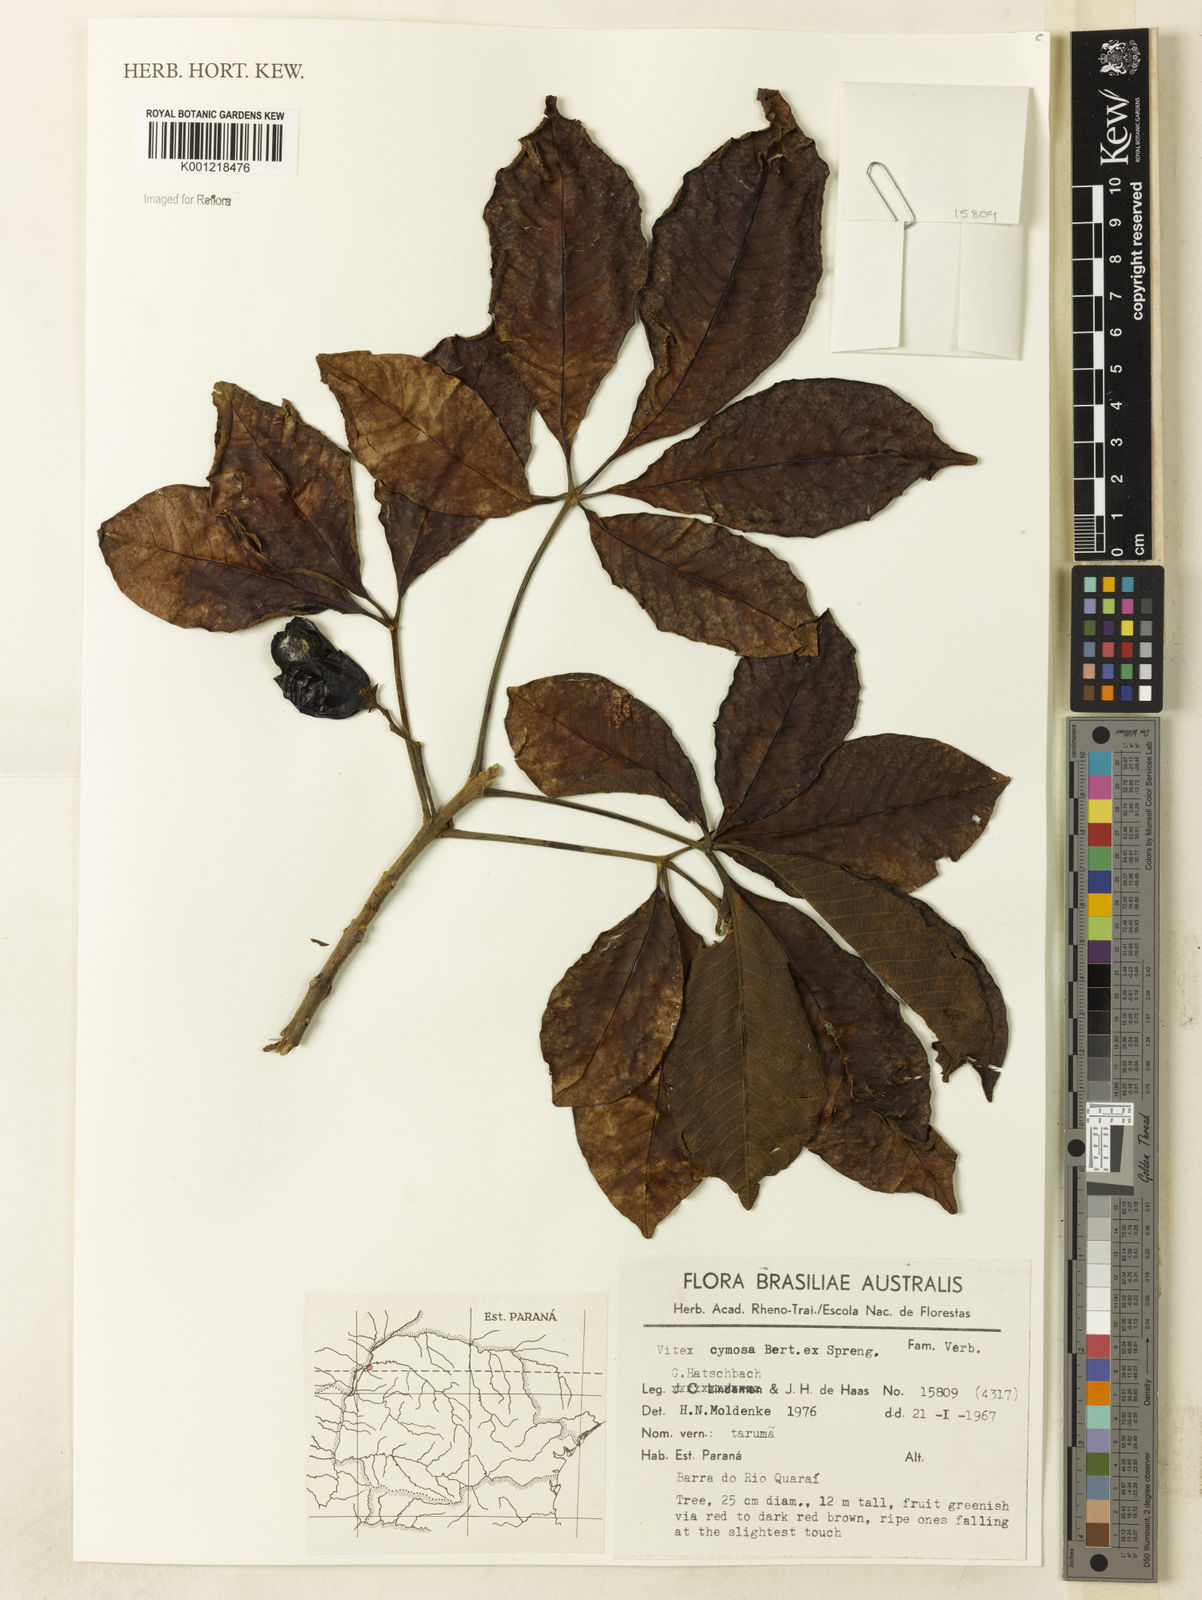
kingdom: Plantae
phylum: Tracheophyta
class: Magnoliopsida
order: Lamiales
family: Lamiaceae
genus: Vitex
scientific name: Vitex cymosa
